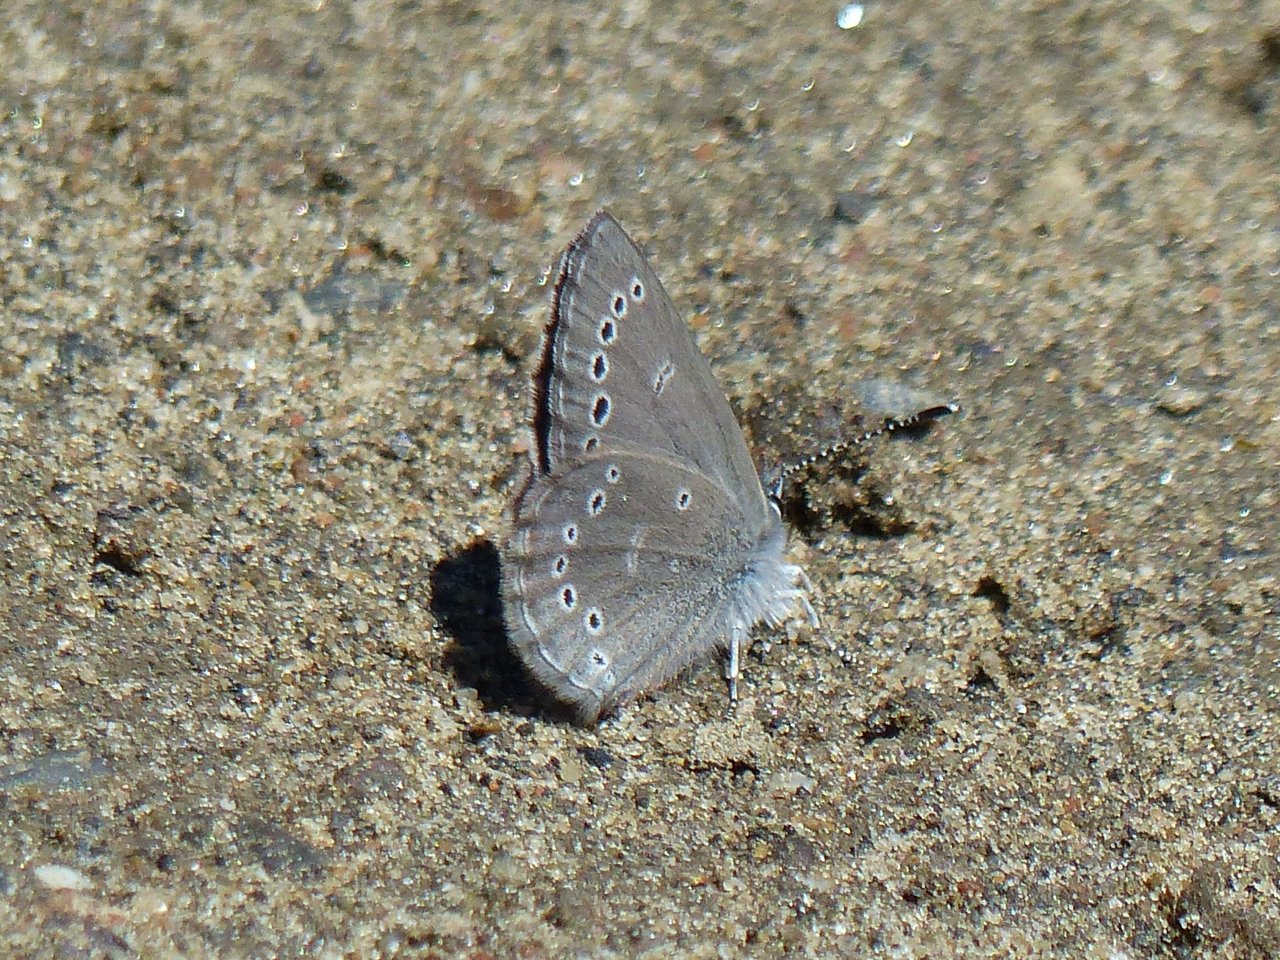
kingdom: Animalia
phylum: Arthropoda
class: Insecta
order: Lepidoptera
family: Lycaenidae
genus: Glaucopsyche
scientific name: Glaucopsyche lygdamus
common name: Silvery Blue
